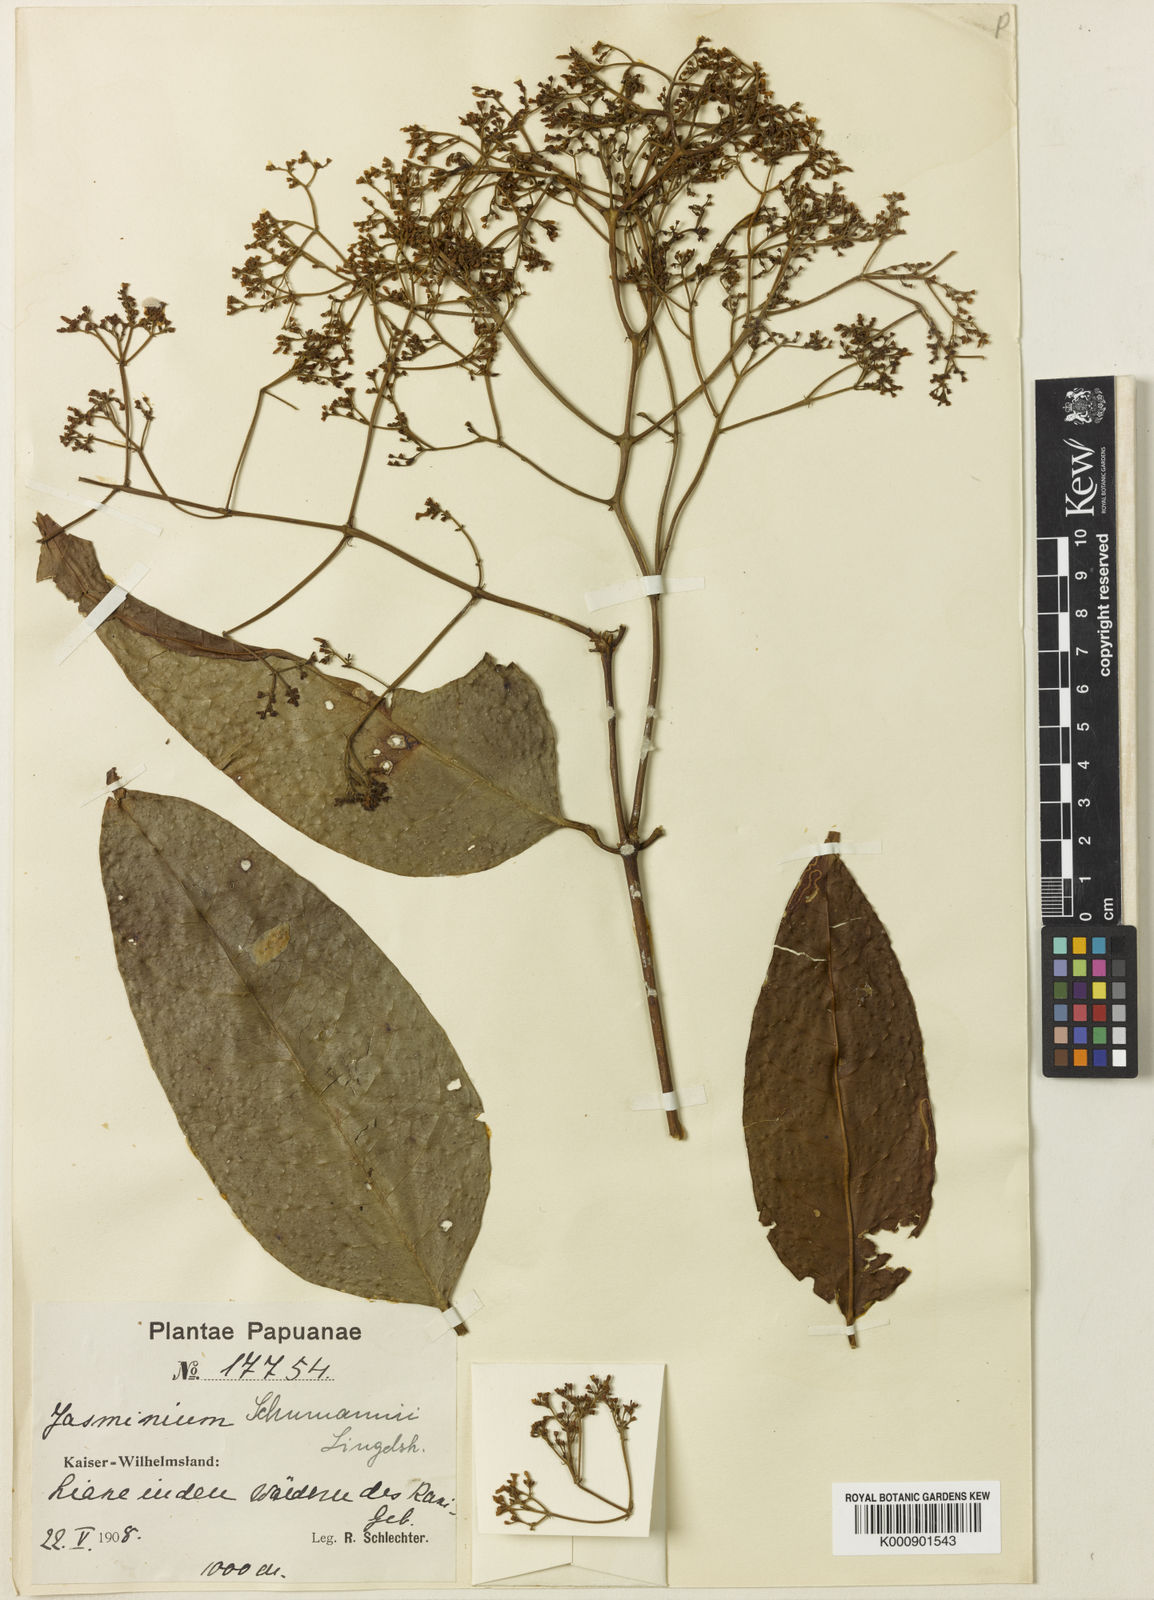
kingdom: Plantae
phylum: Tracheophyta
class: Magnoliopsida
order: Lamiales
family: Oleaceae
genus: Jasminum
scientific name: Jasminum gilgianum
